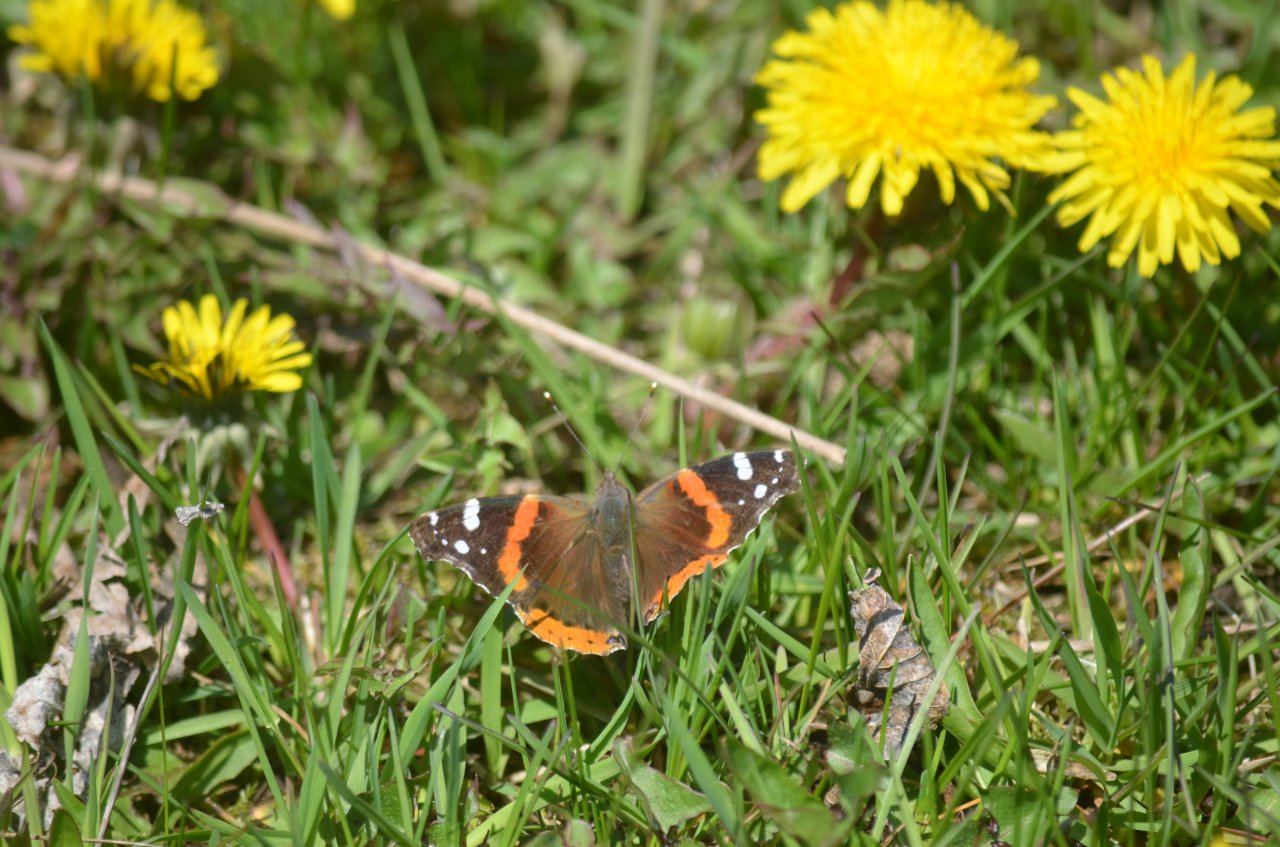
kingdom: Animalia
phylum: Arthropoda
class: Insecta
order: Lepidoptera
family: Nymphalidae
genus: Vanessa
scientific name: Vanessa atalanta
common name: Red Admiral
